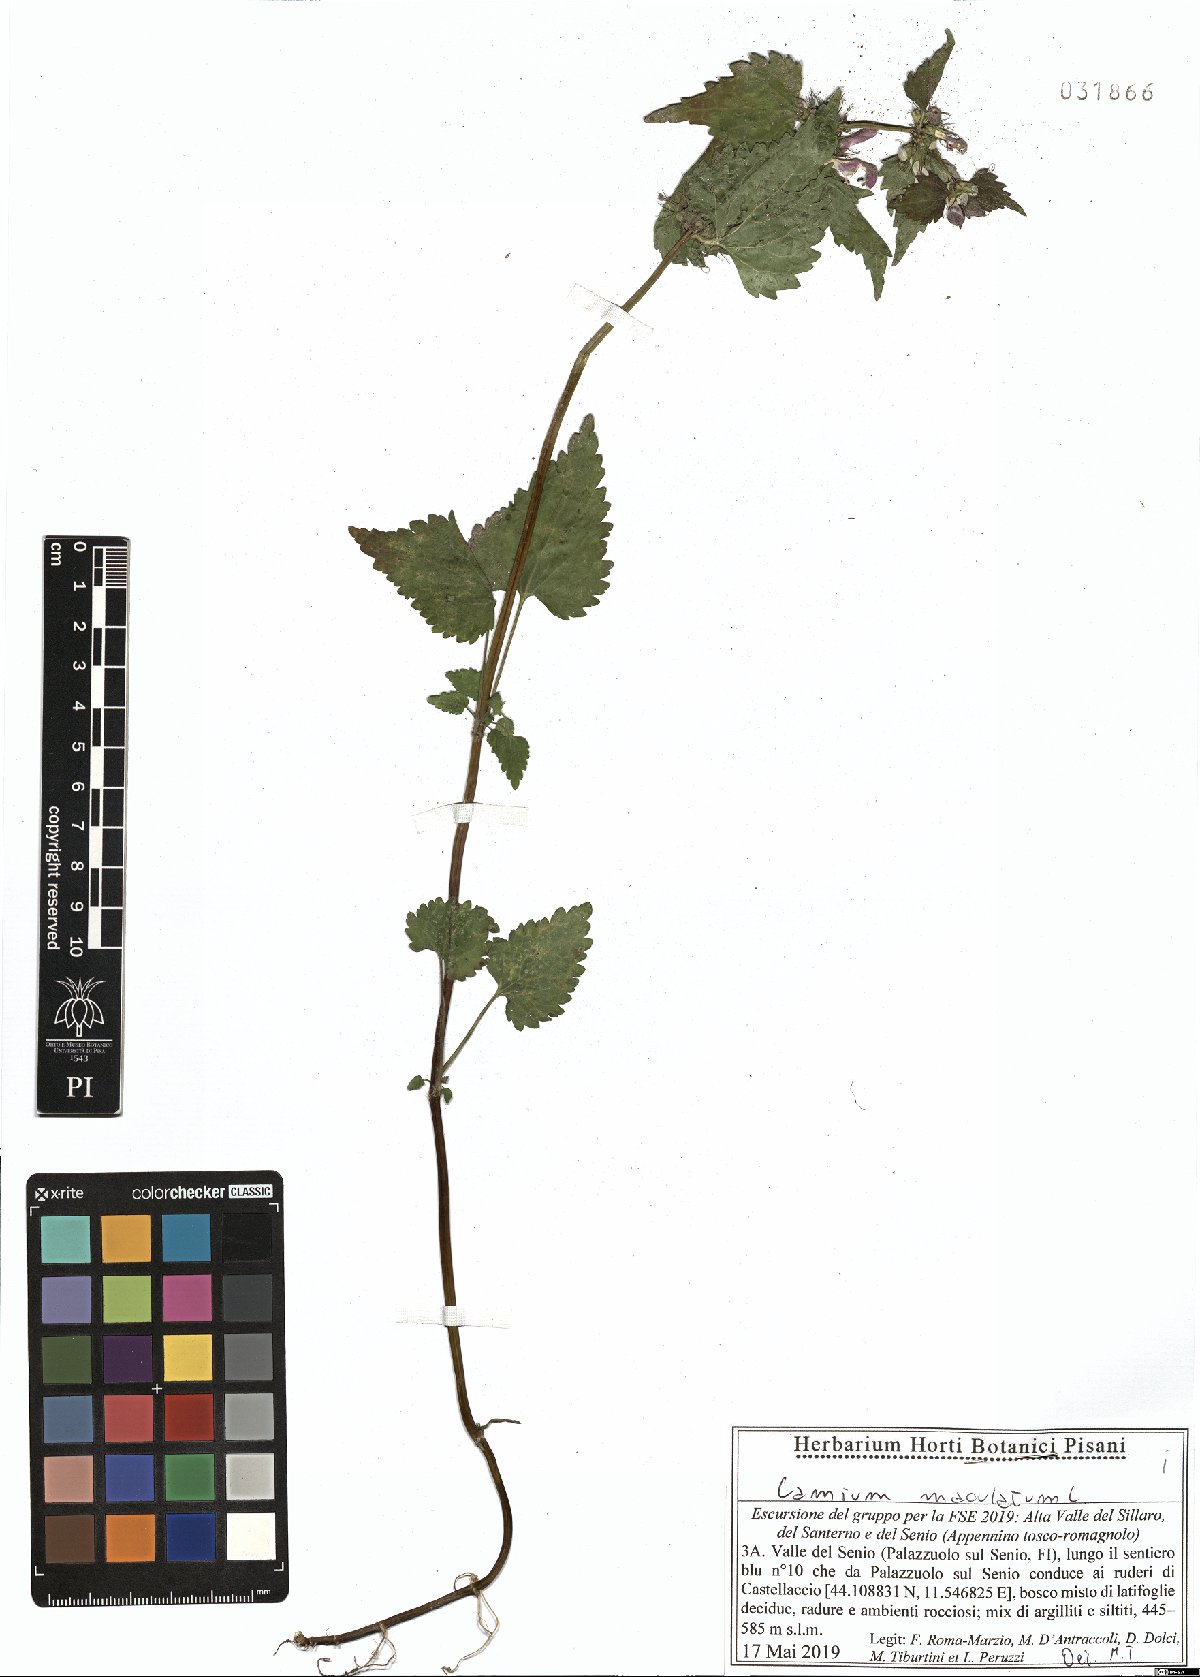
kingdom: Plantae
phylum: Tracheophyta
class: Magnoliopsida
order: Lamiales
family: Lamiaceae
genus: Lamium
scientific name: Lamium maculatum
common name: Spotted dead-nettle
